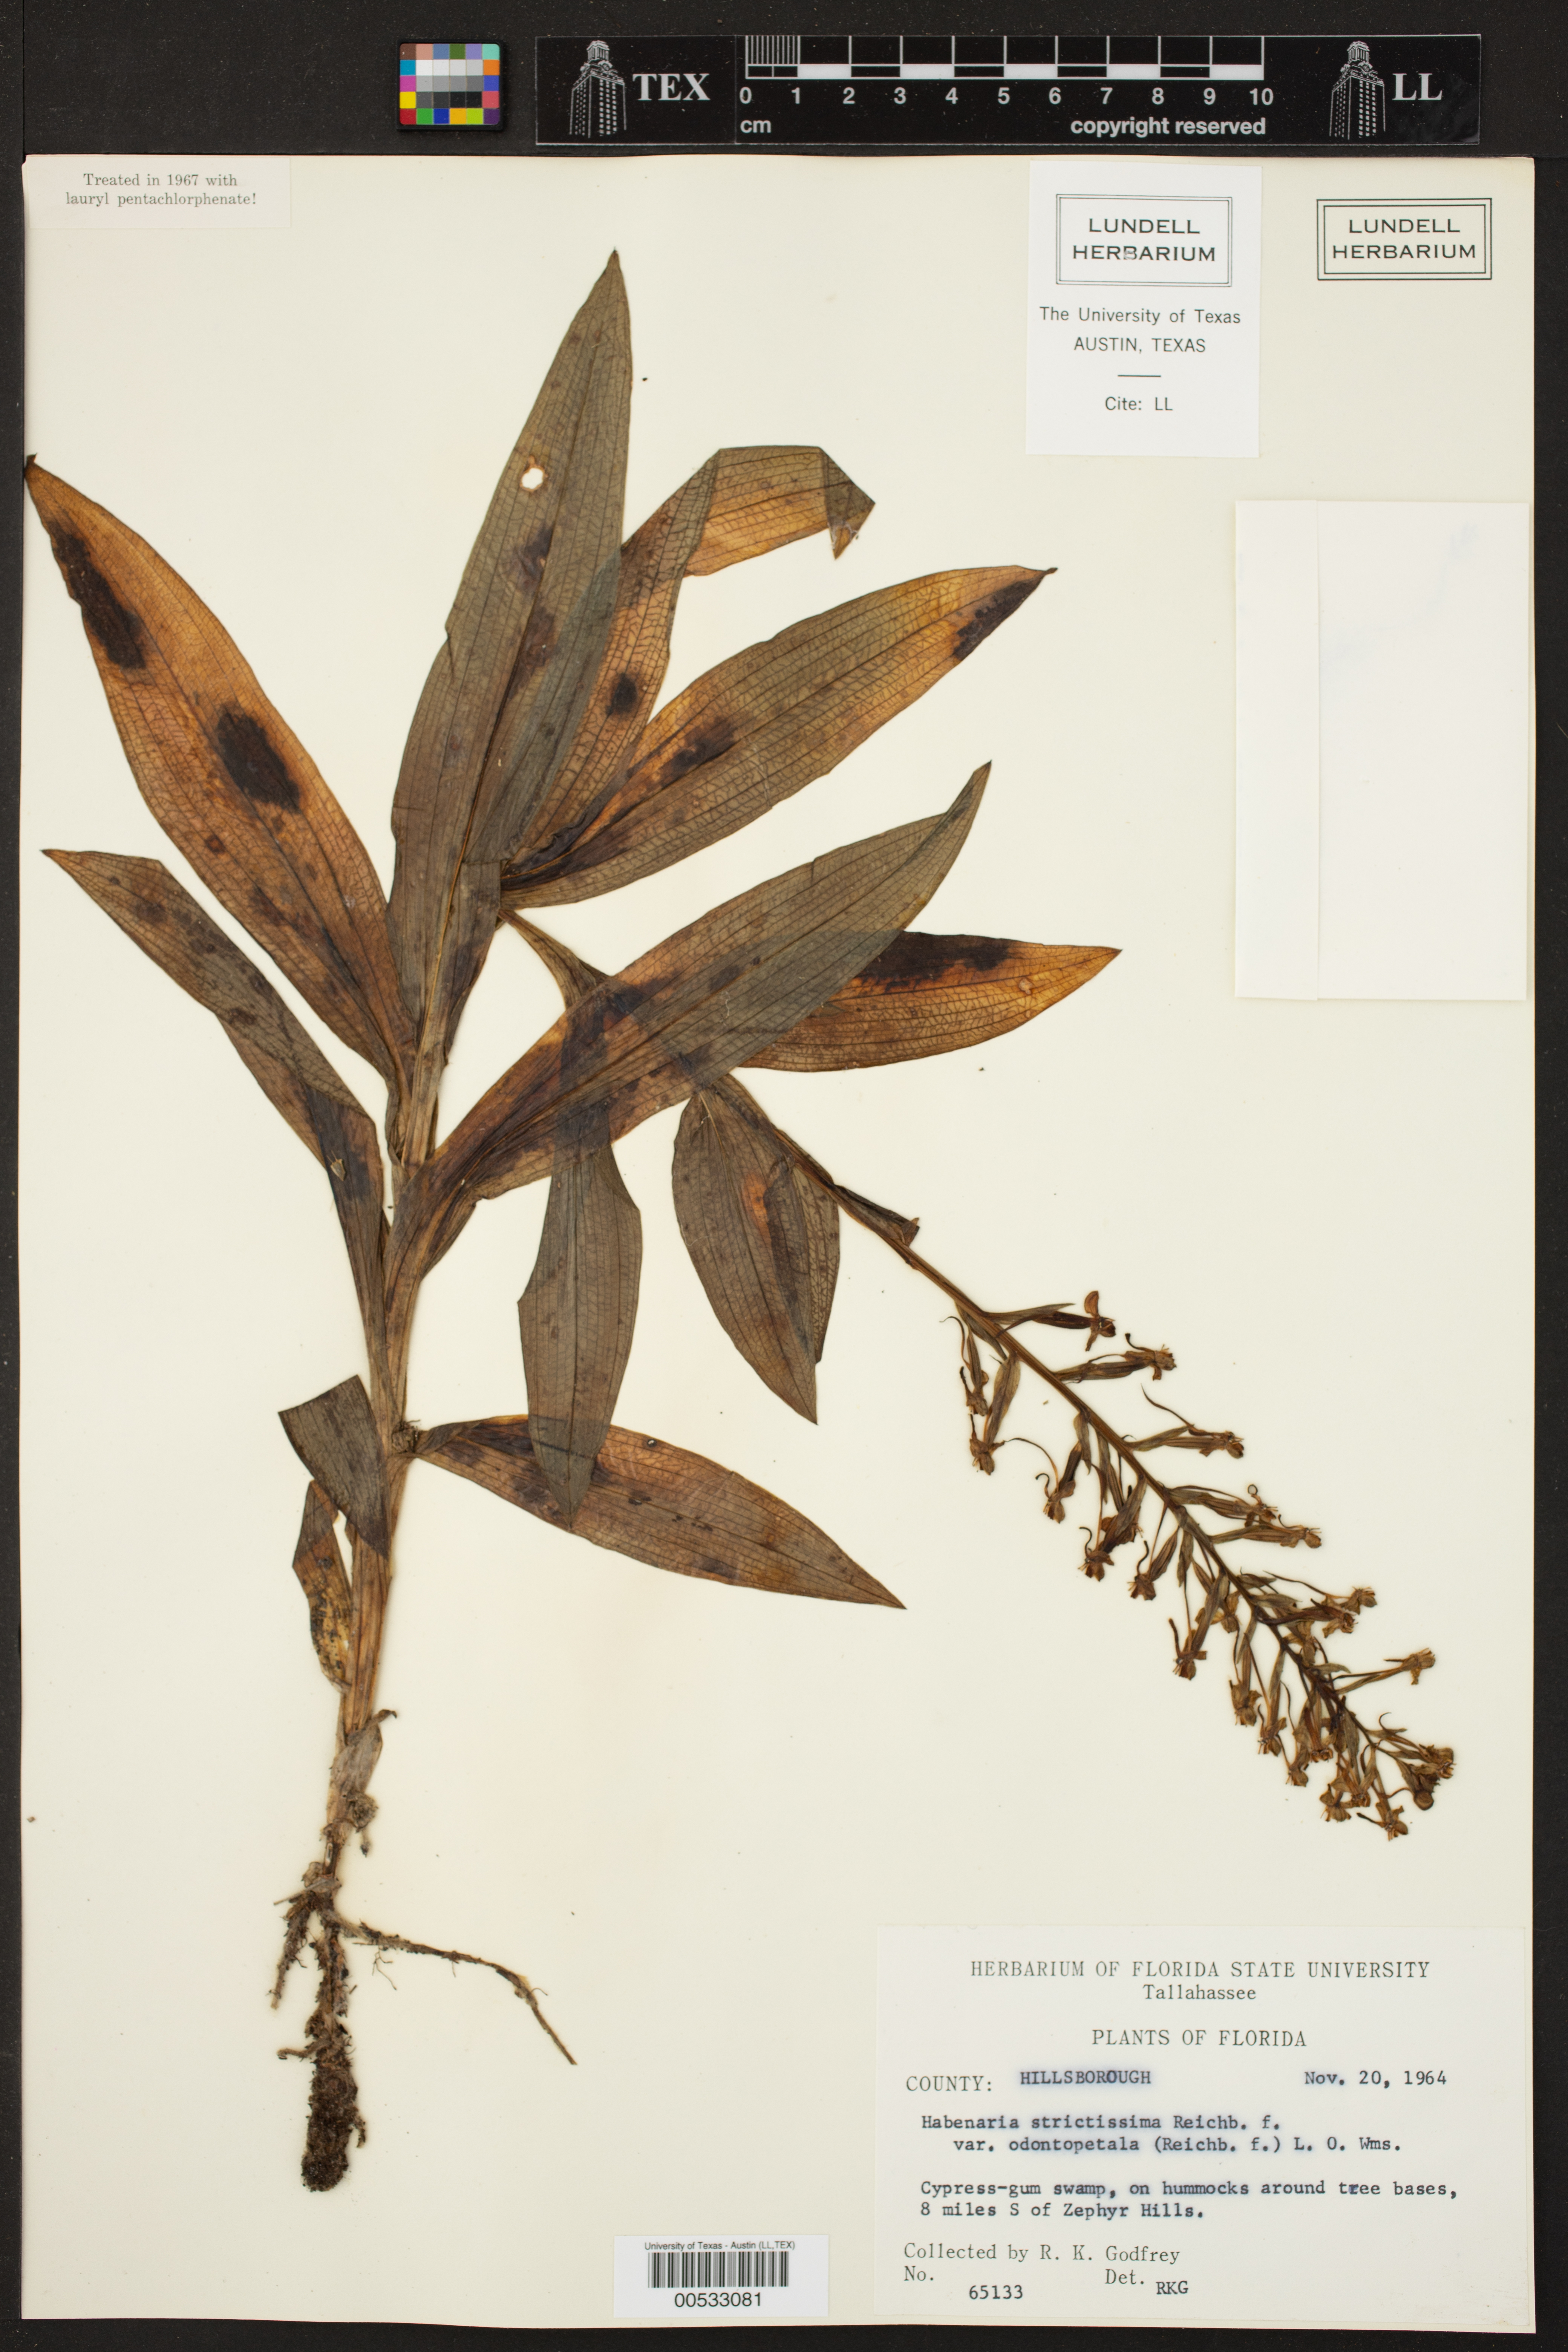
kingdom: Plantae
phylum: Tracheophyta
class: Liliopsida
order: Asparagales
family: Orchidaceae
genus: Habenaria
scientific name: Habenaria strictissima
